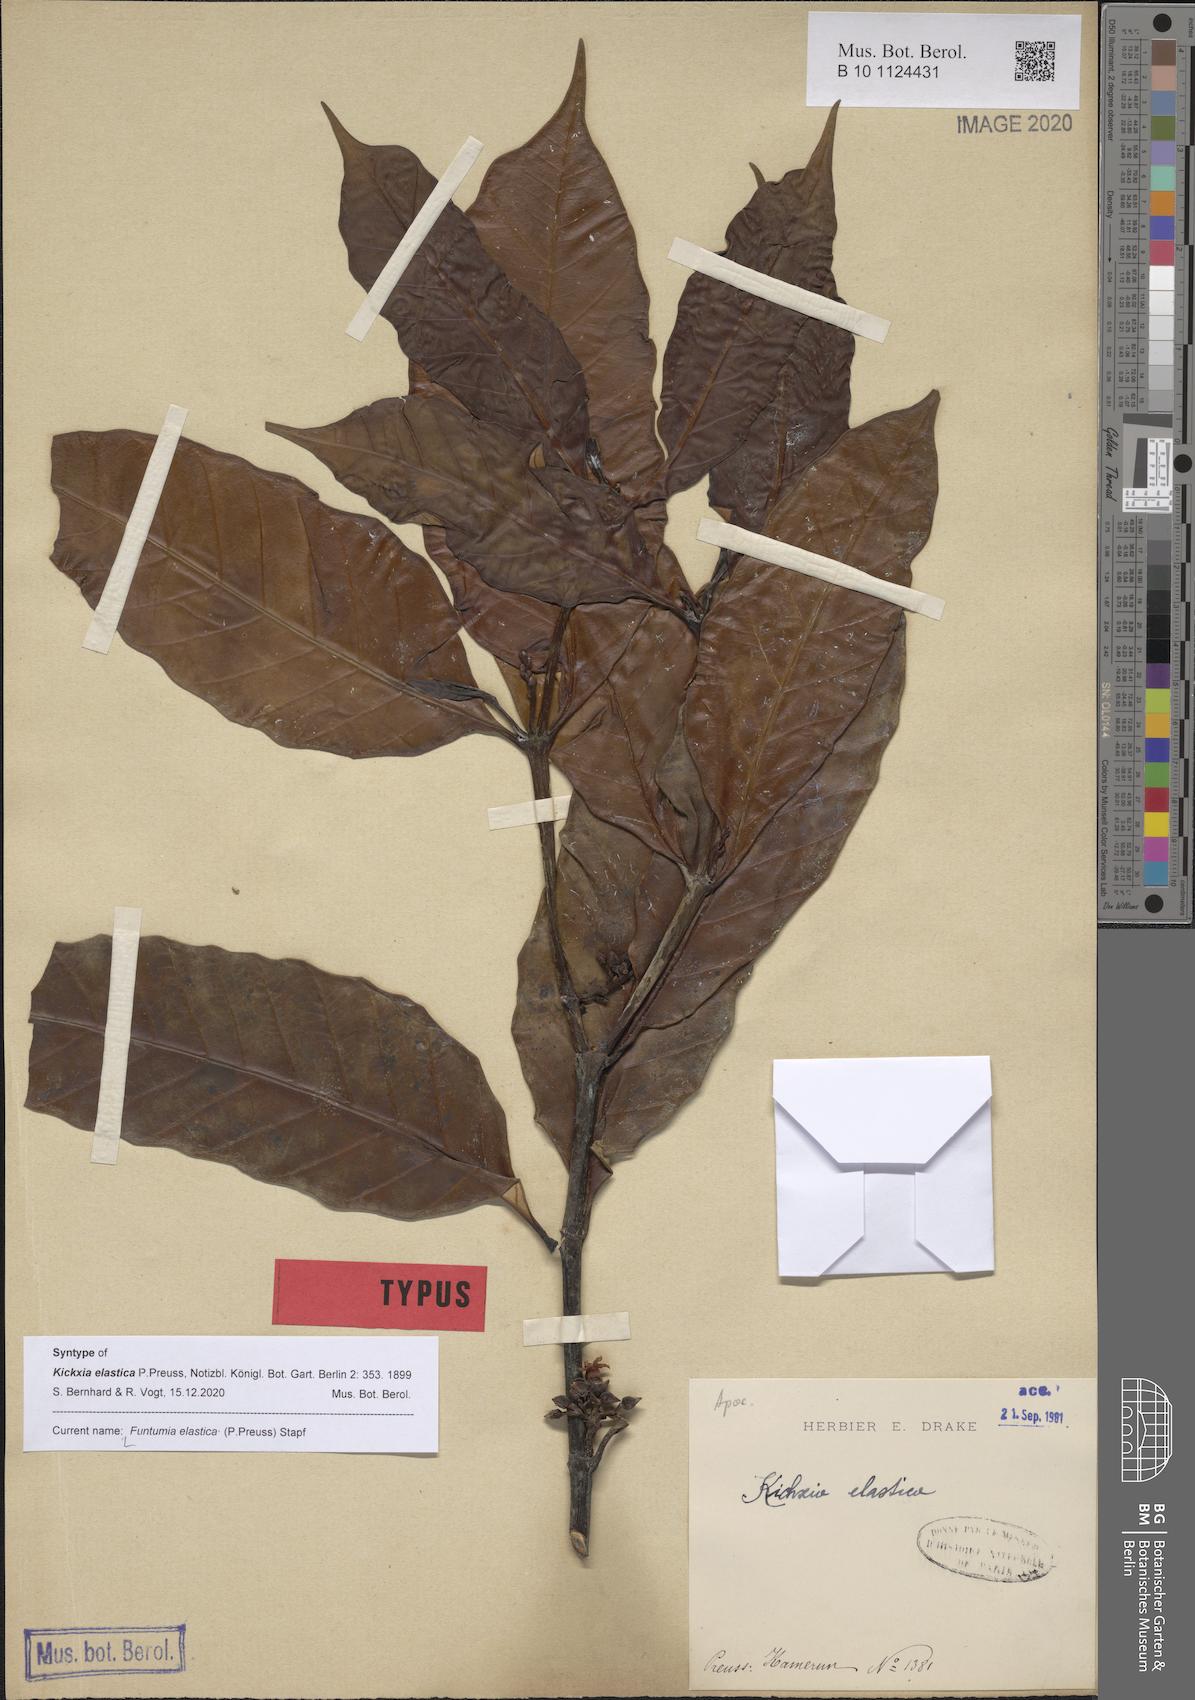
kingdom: Plantae
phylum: Tracheophyta
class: Magnoliopsida
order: Gentianales
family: Apocynaceae
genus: Funtumia
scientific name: Funtumia elastica
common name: Silkrubber
